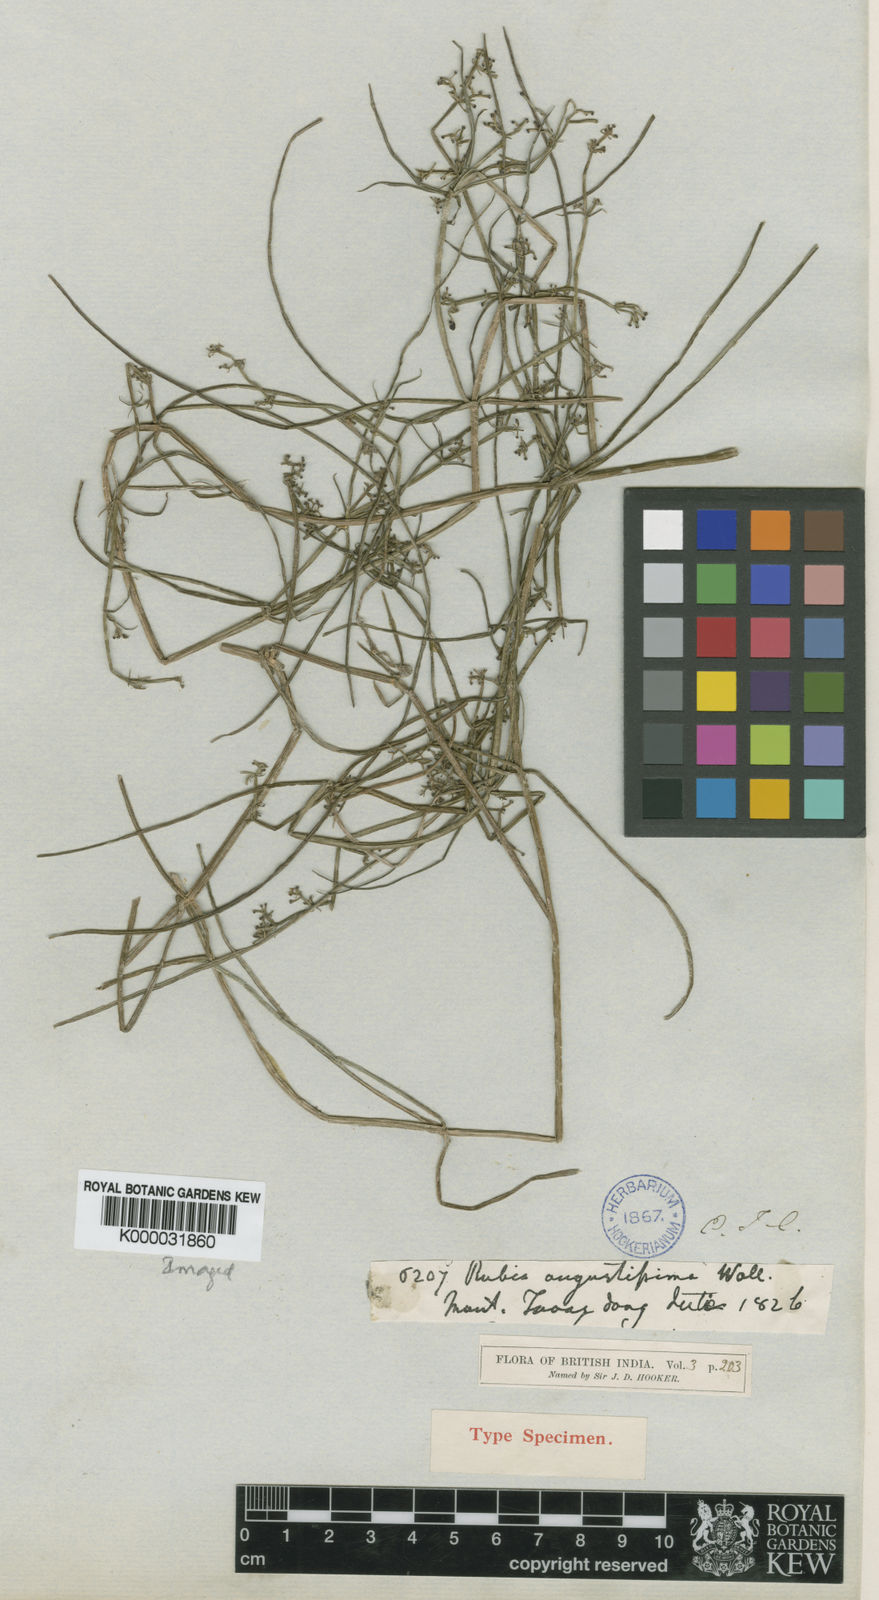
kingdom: Plantae
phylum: Tracheophyta
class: Magnoliopsida
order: Gentianales
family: Rubiaceae
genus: Rubia
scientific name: Rubia
